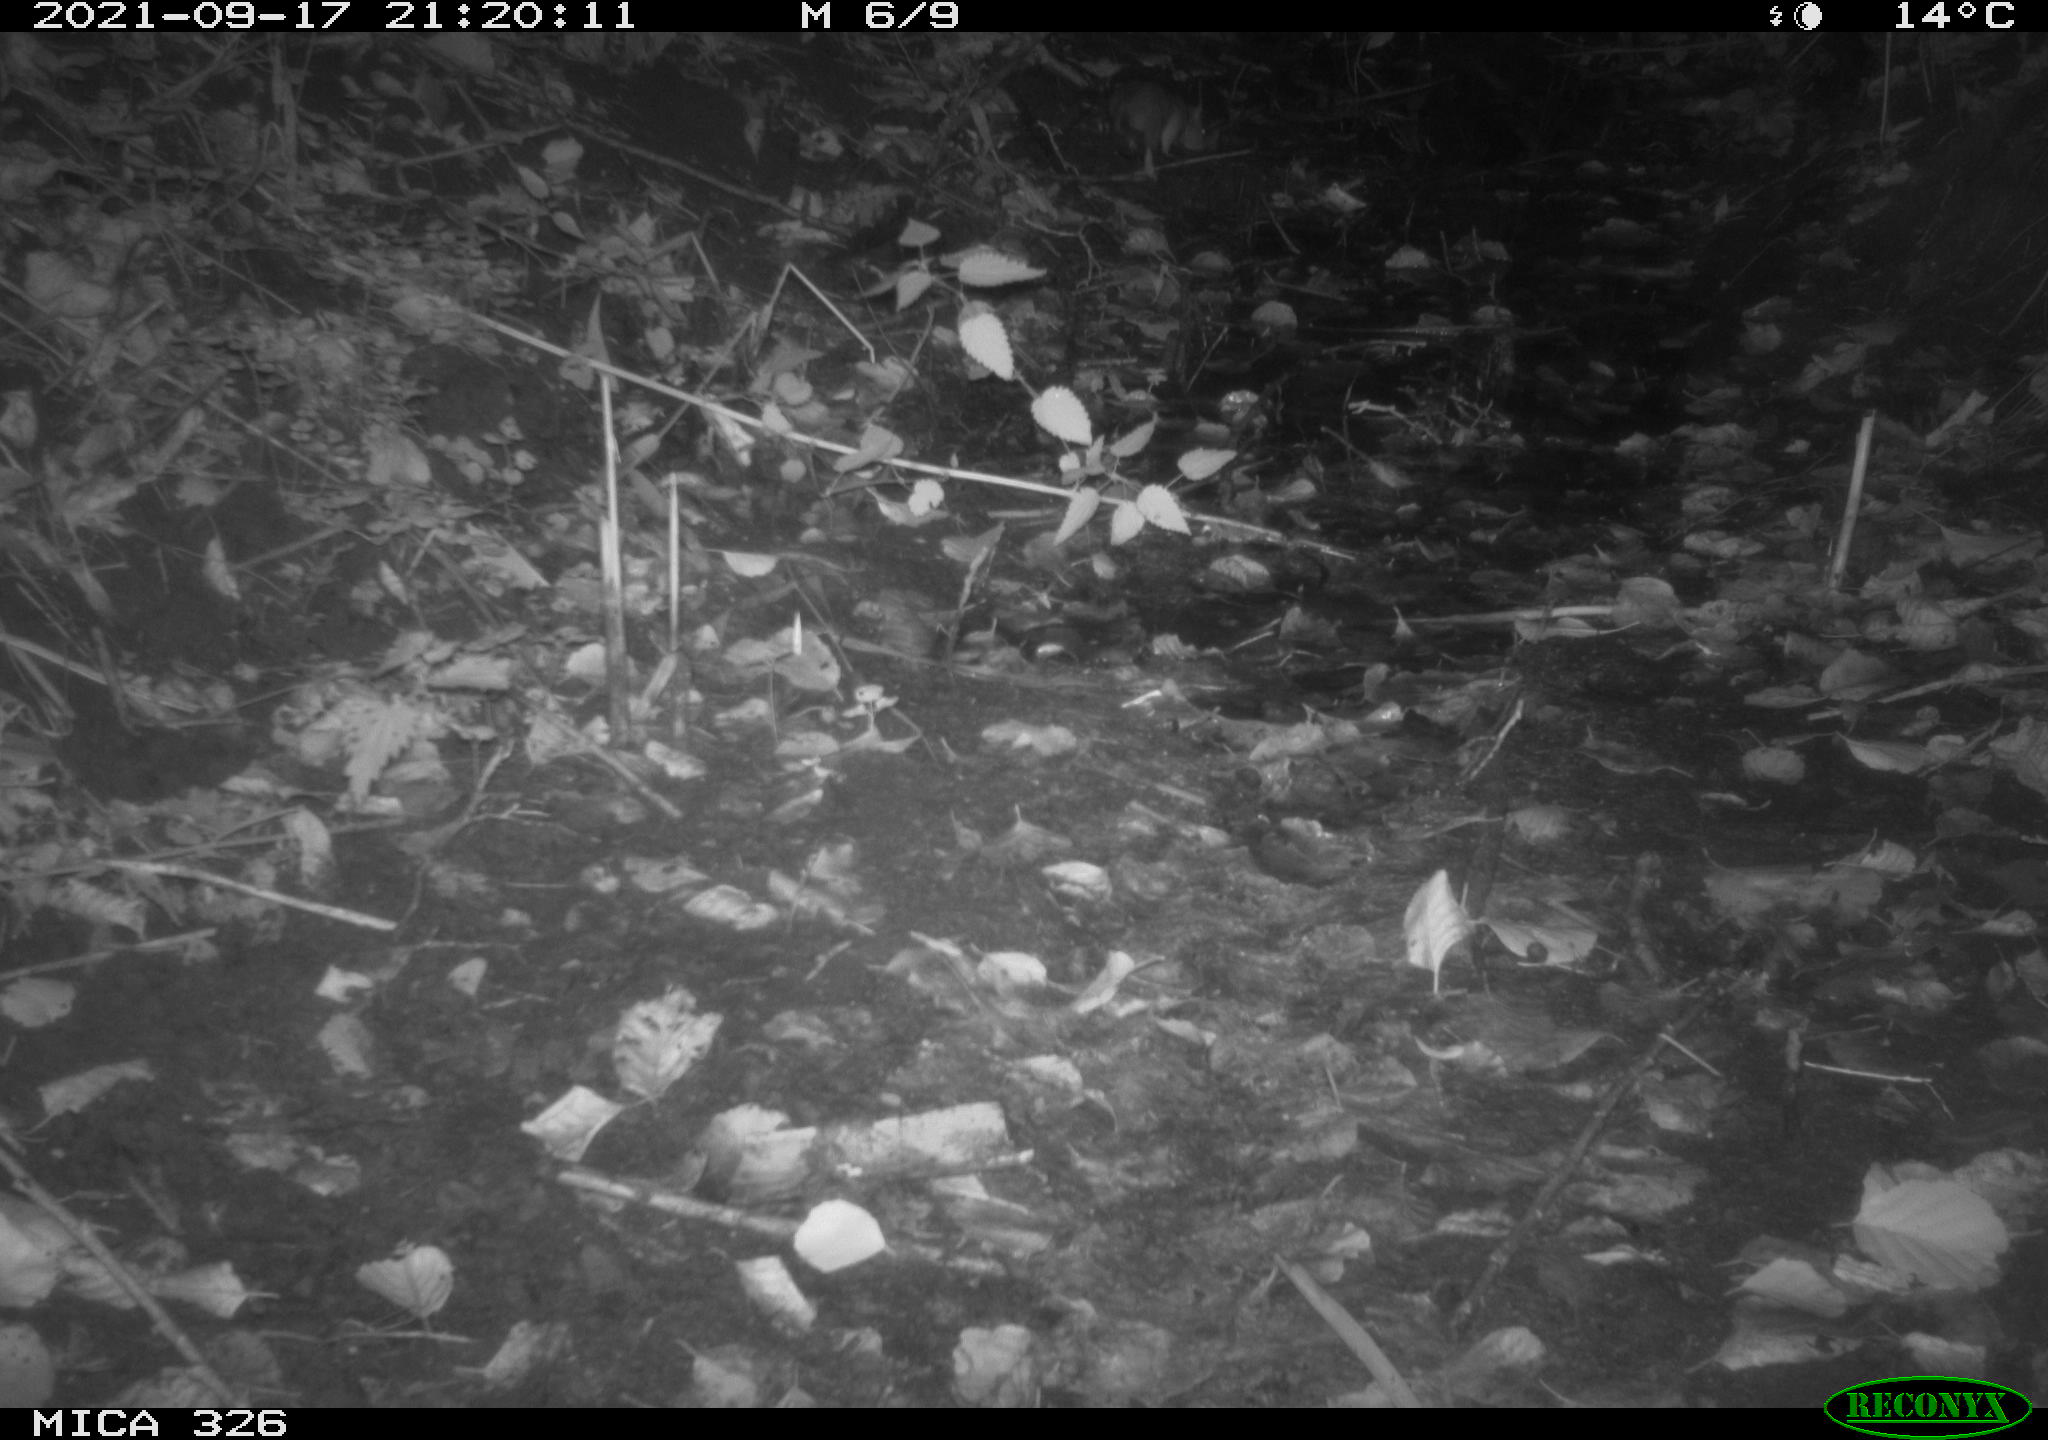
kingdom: Animalia
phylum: Chordata
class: Mammalia
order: Rodentia
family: Muridae
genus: Rattus
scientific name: Rattus norvegicus
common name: Brown rat
